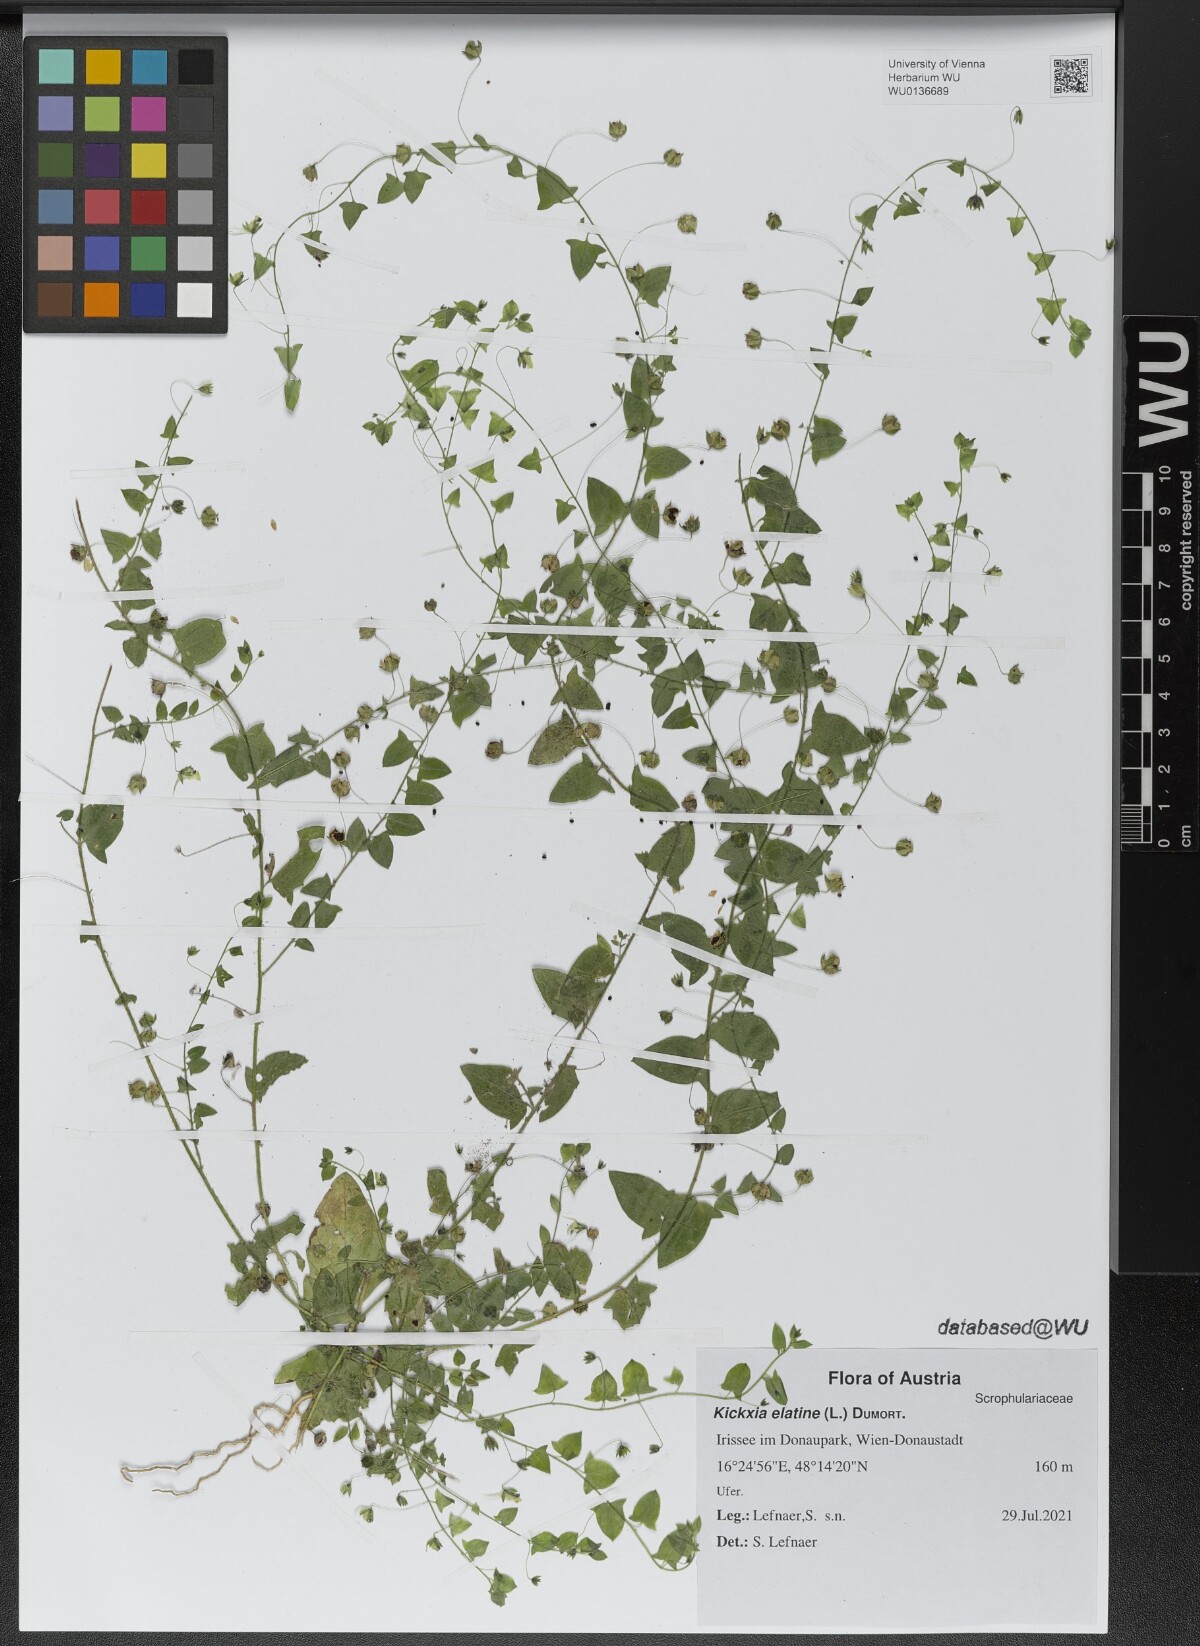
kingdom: Plantae
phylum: Tracheophyta
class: Magnoliopsida
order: Lamiales
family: Plantaginaceae
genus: Kickxia
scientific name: Kickxia elatine
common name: Sharp-leaved fluellen
